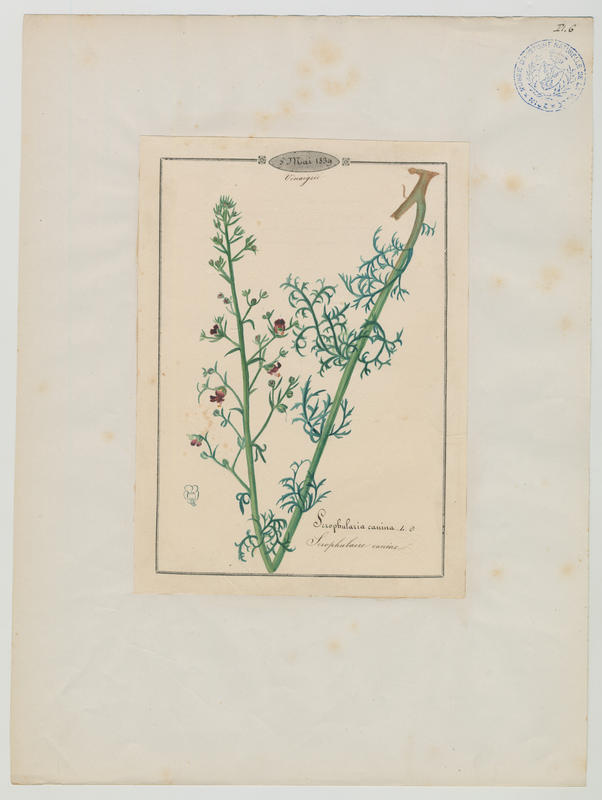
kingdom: Plantae
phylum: Tracheophyta
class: Magnoliopsida
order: Lamiales
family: Scrophulariaceae
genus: Scrophularia
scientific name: Scrophularia canina
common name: French figwort
